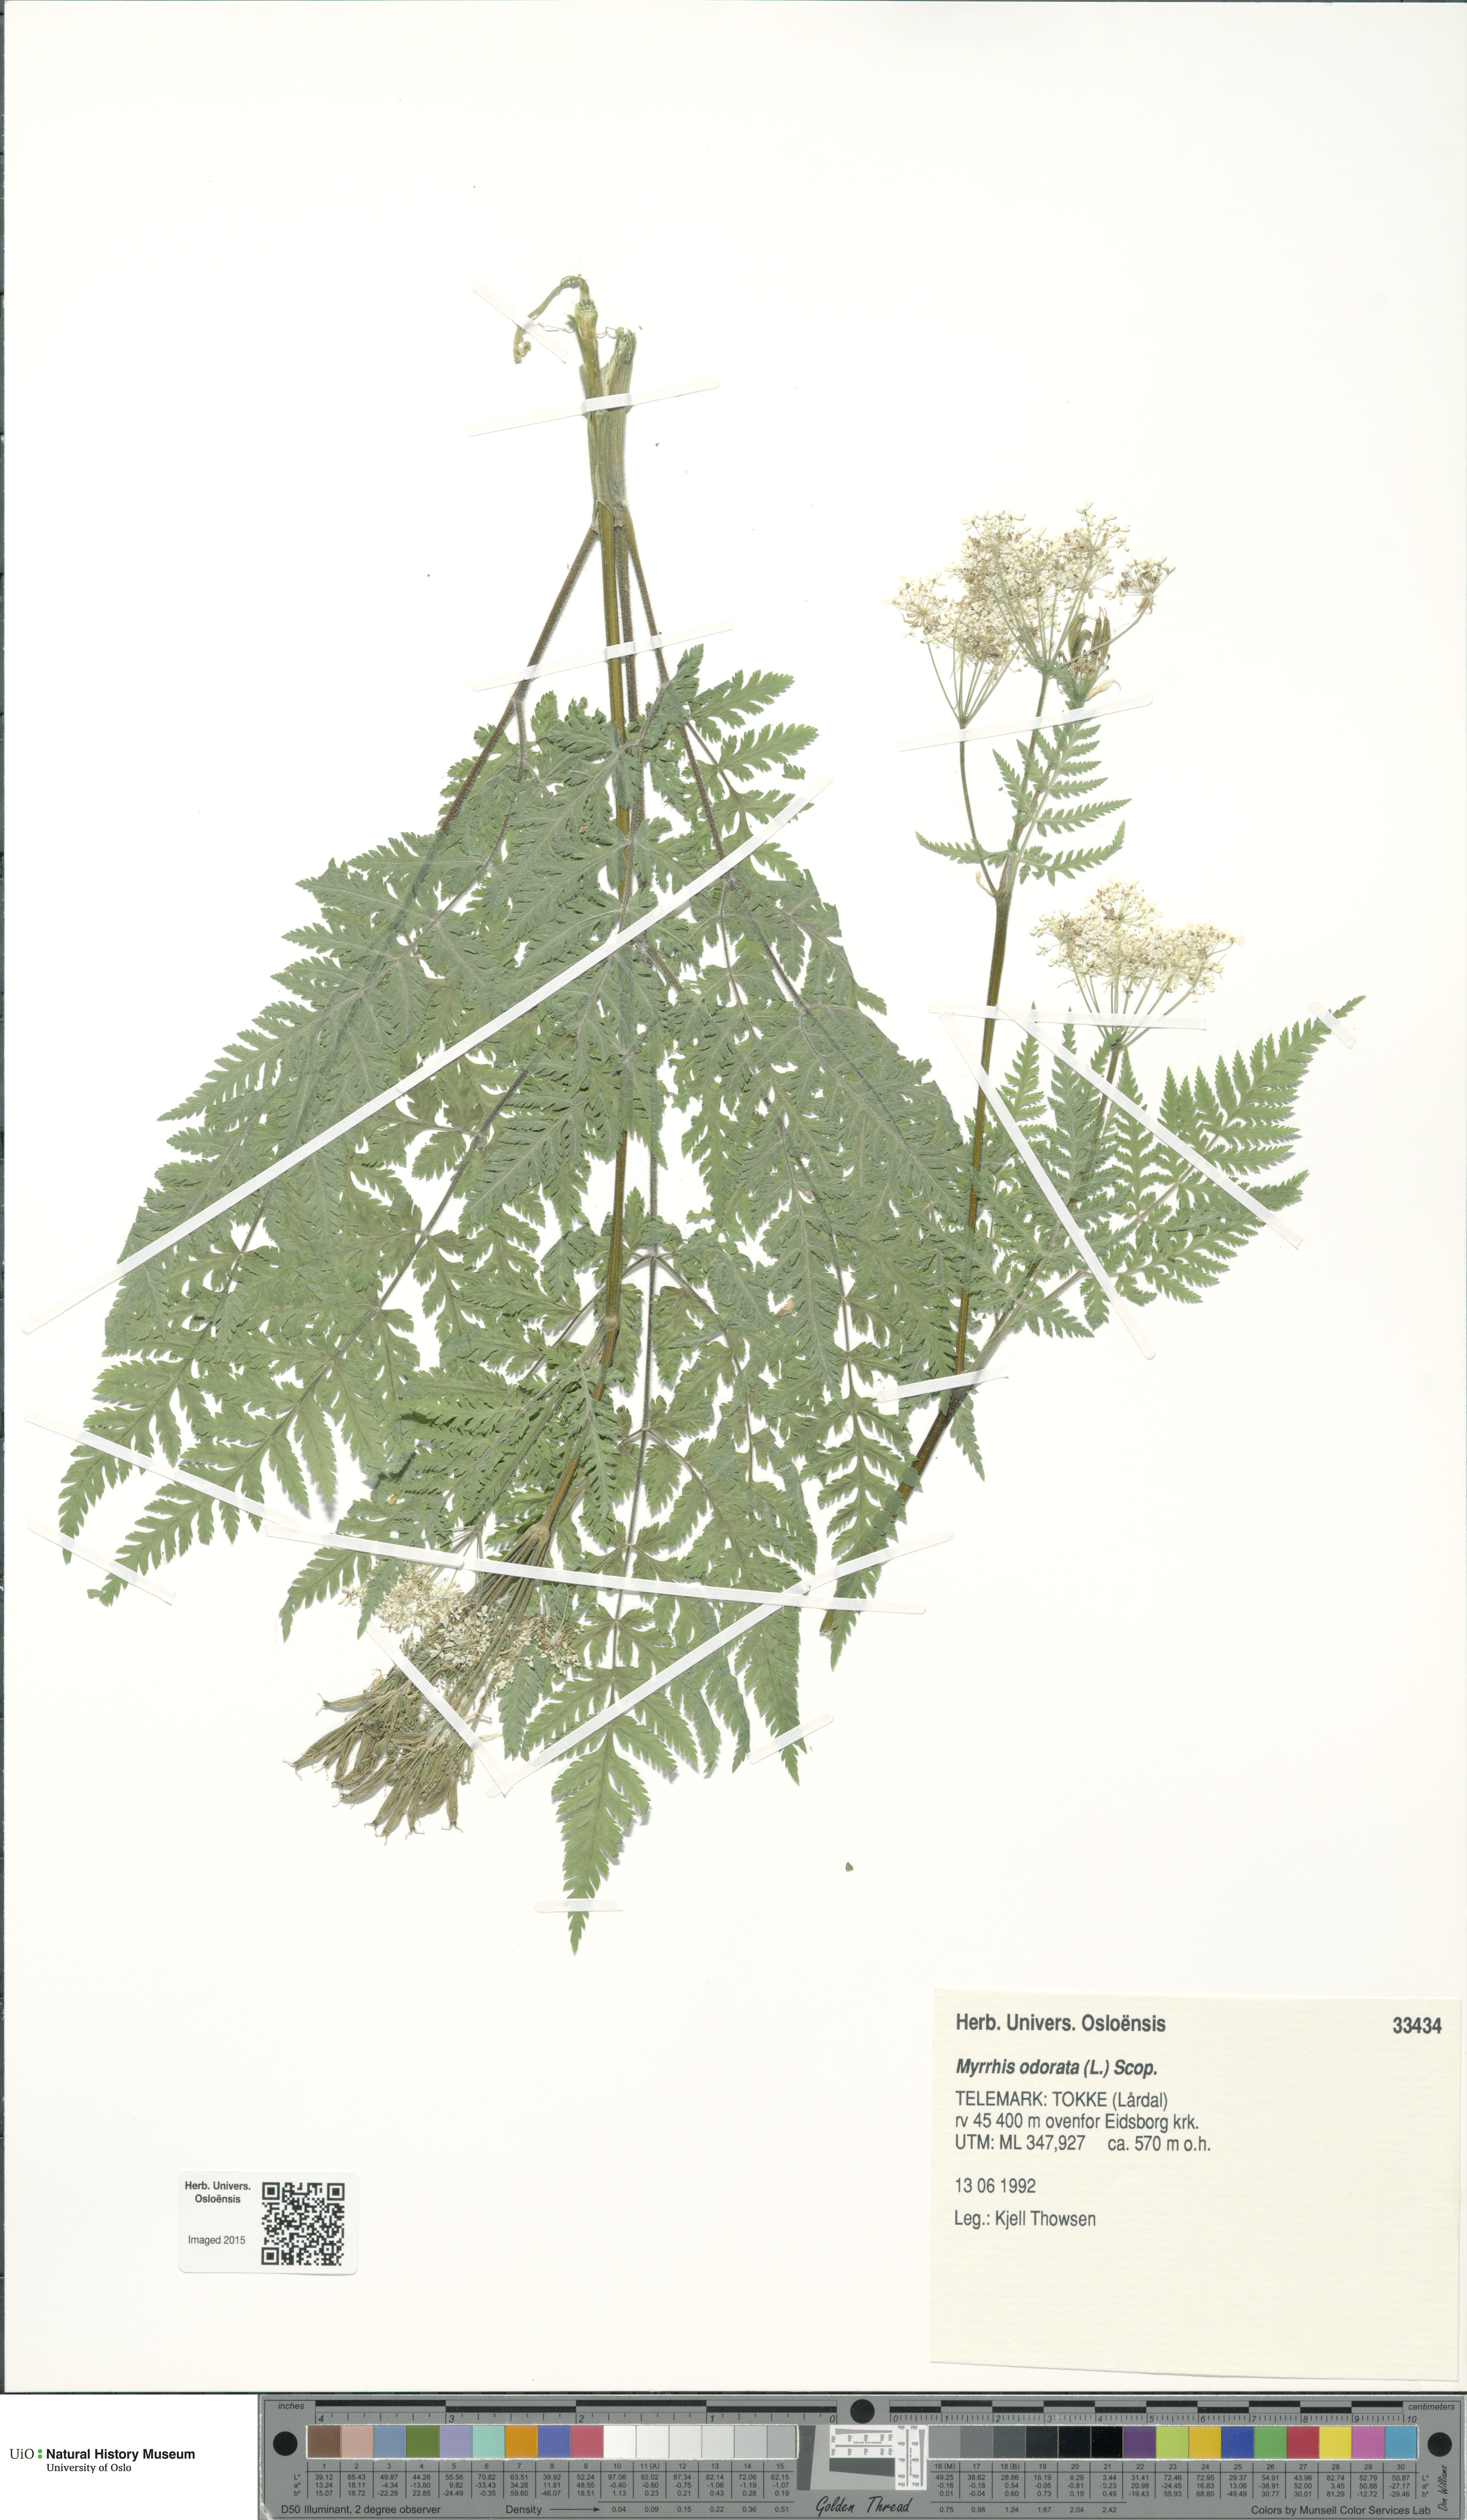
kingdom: Plantae
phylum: Tracheophyta
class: Magnoliopsida
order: Apiales
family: Apiaceae
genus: Myrrhis
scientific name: Myrrhis odorata
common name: Sweet cicely
